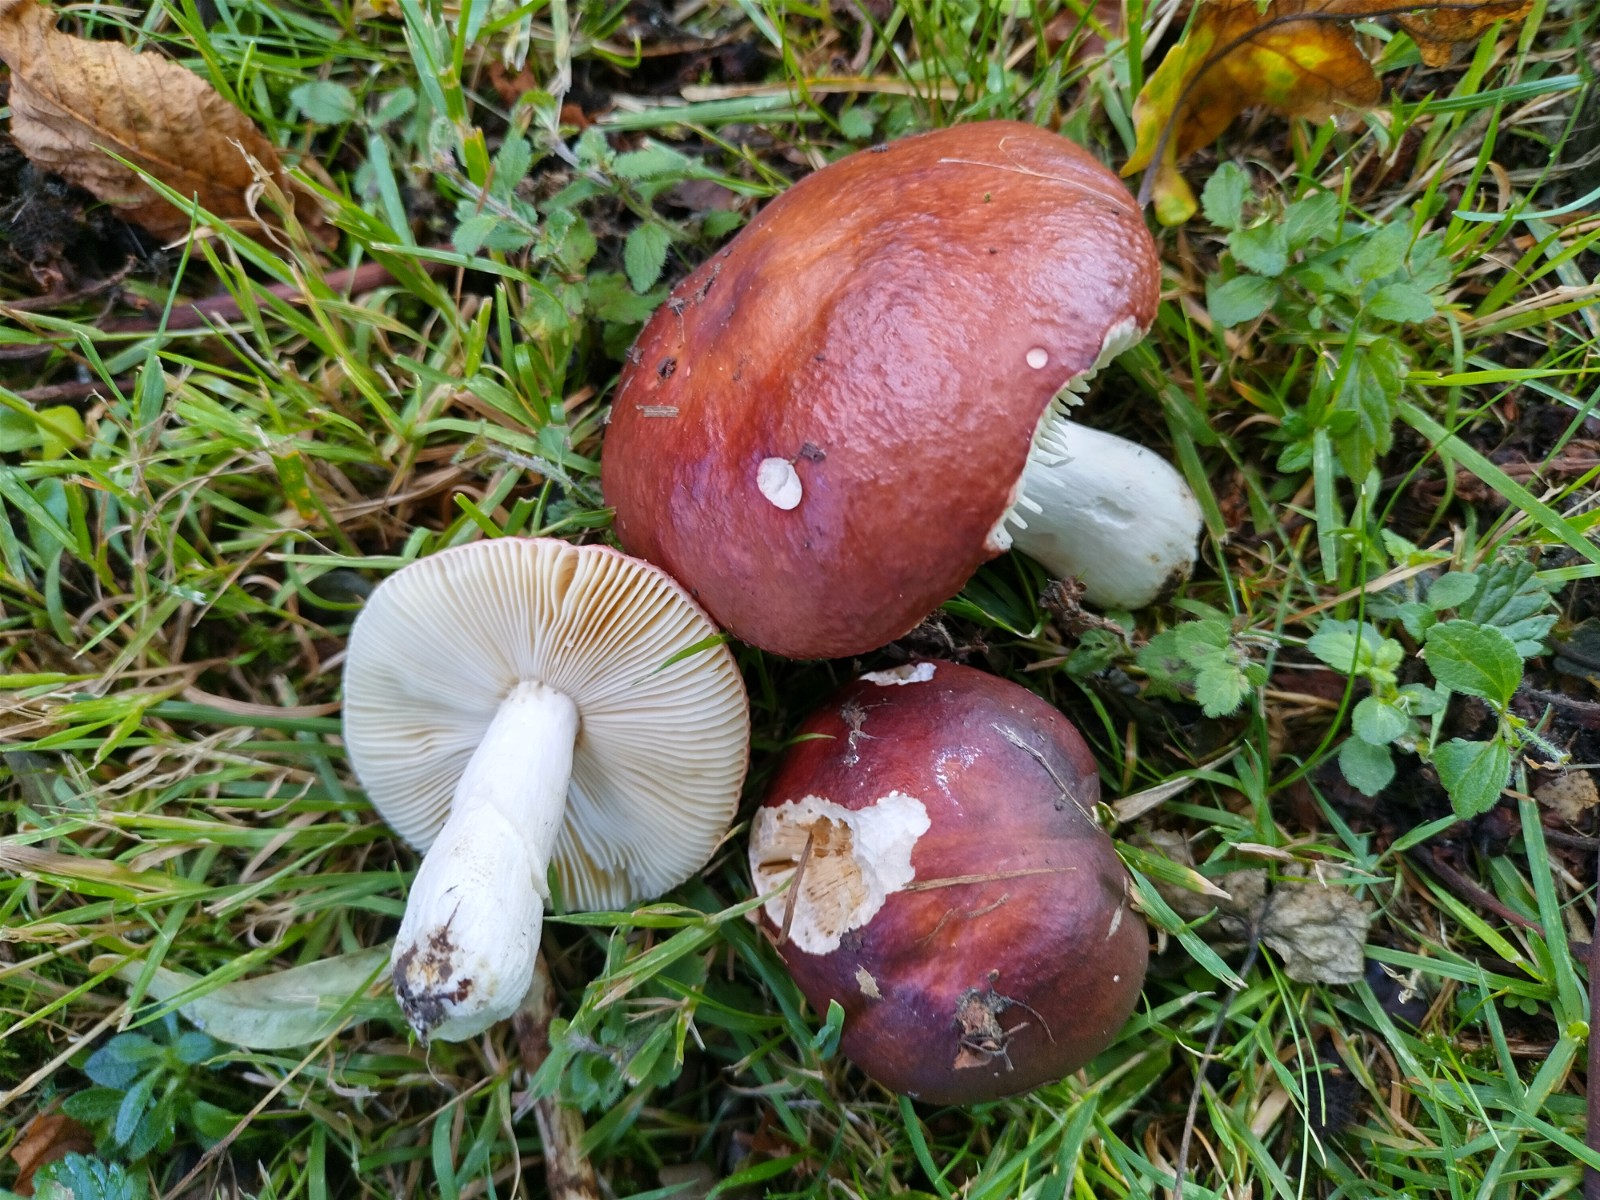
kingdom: Fungi
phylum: Basidiomycota
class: Agaricomycetes
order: Russulales
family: Russulaceae
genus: Russula
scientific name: Russula integra
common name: mandel-skørhat
